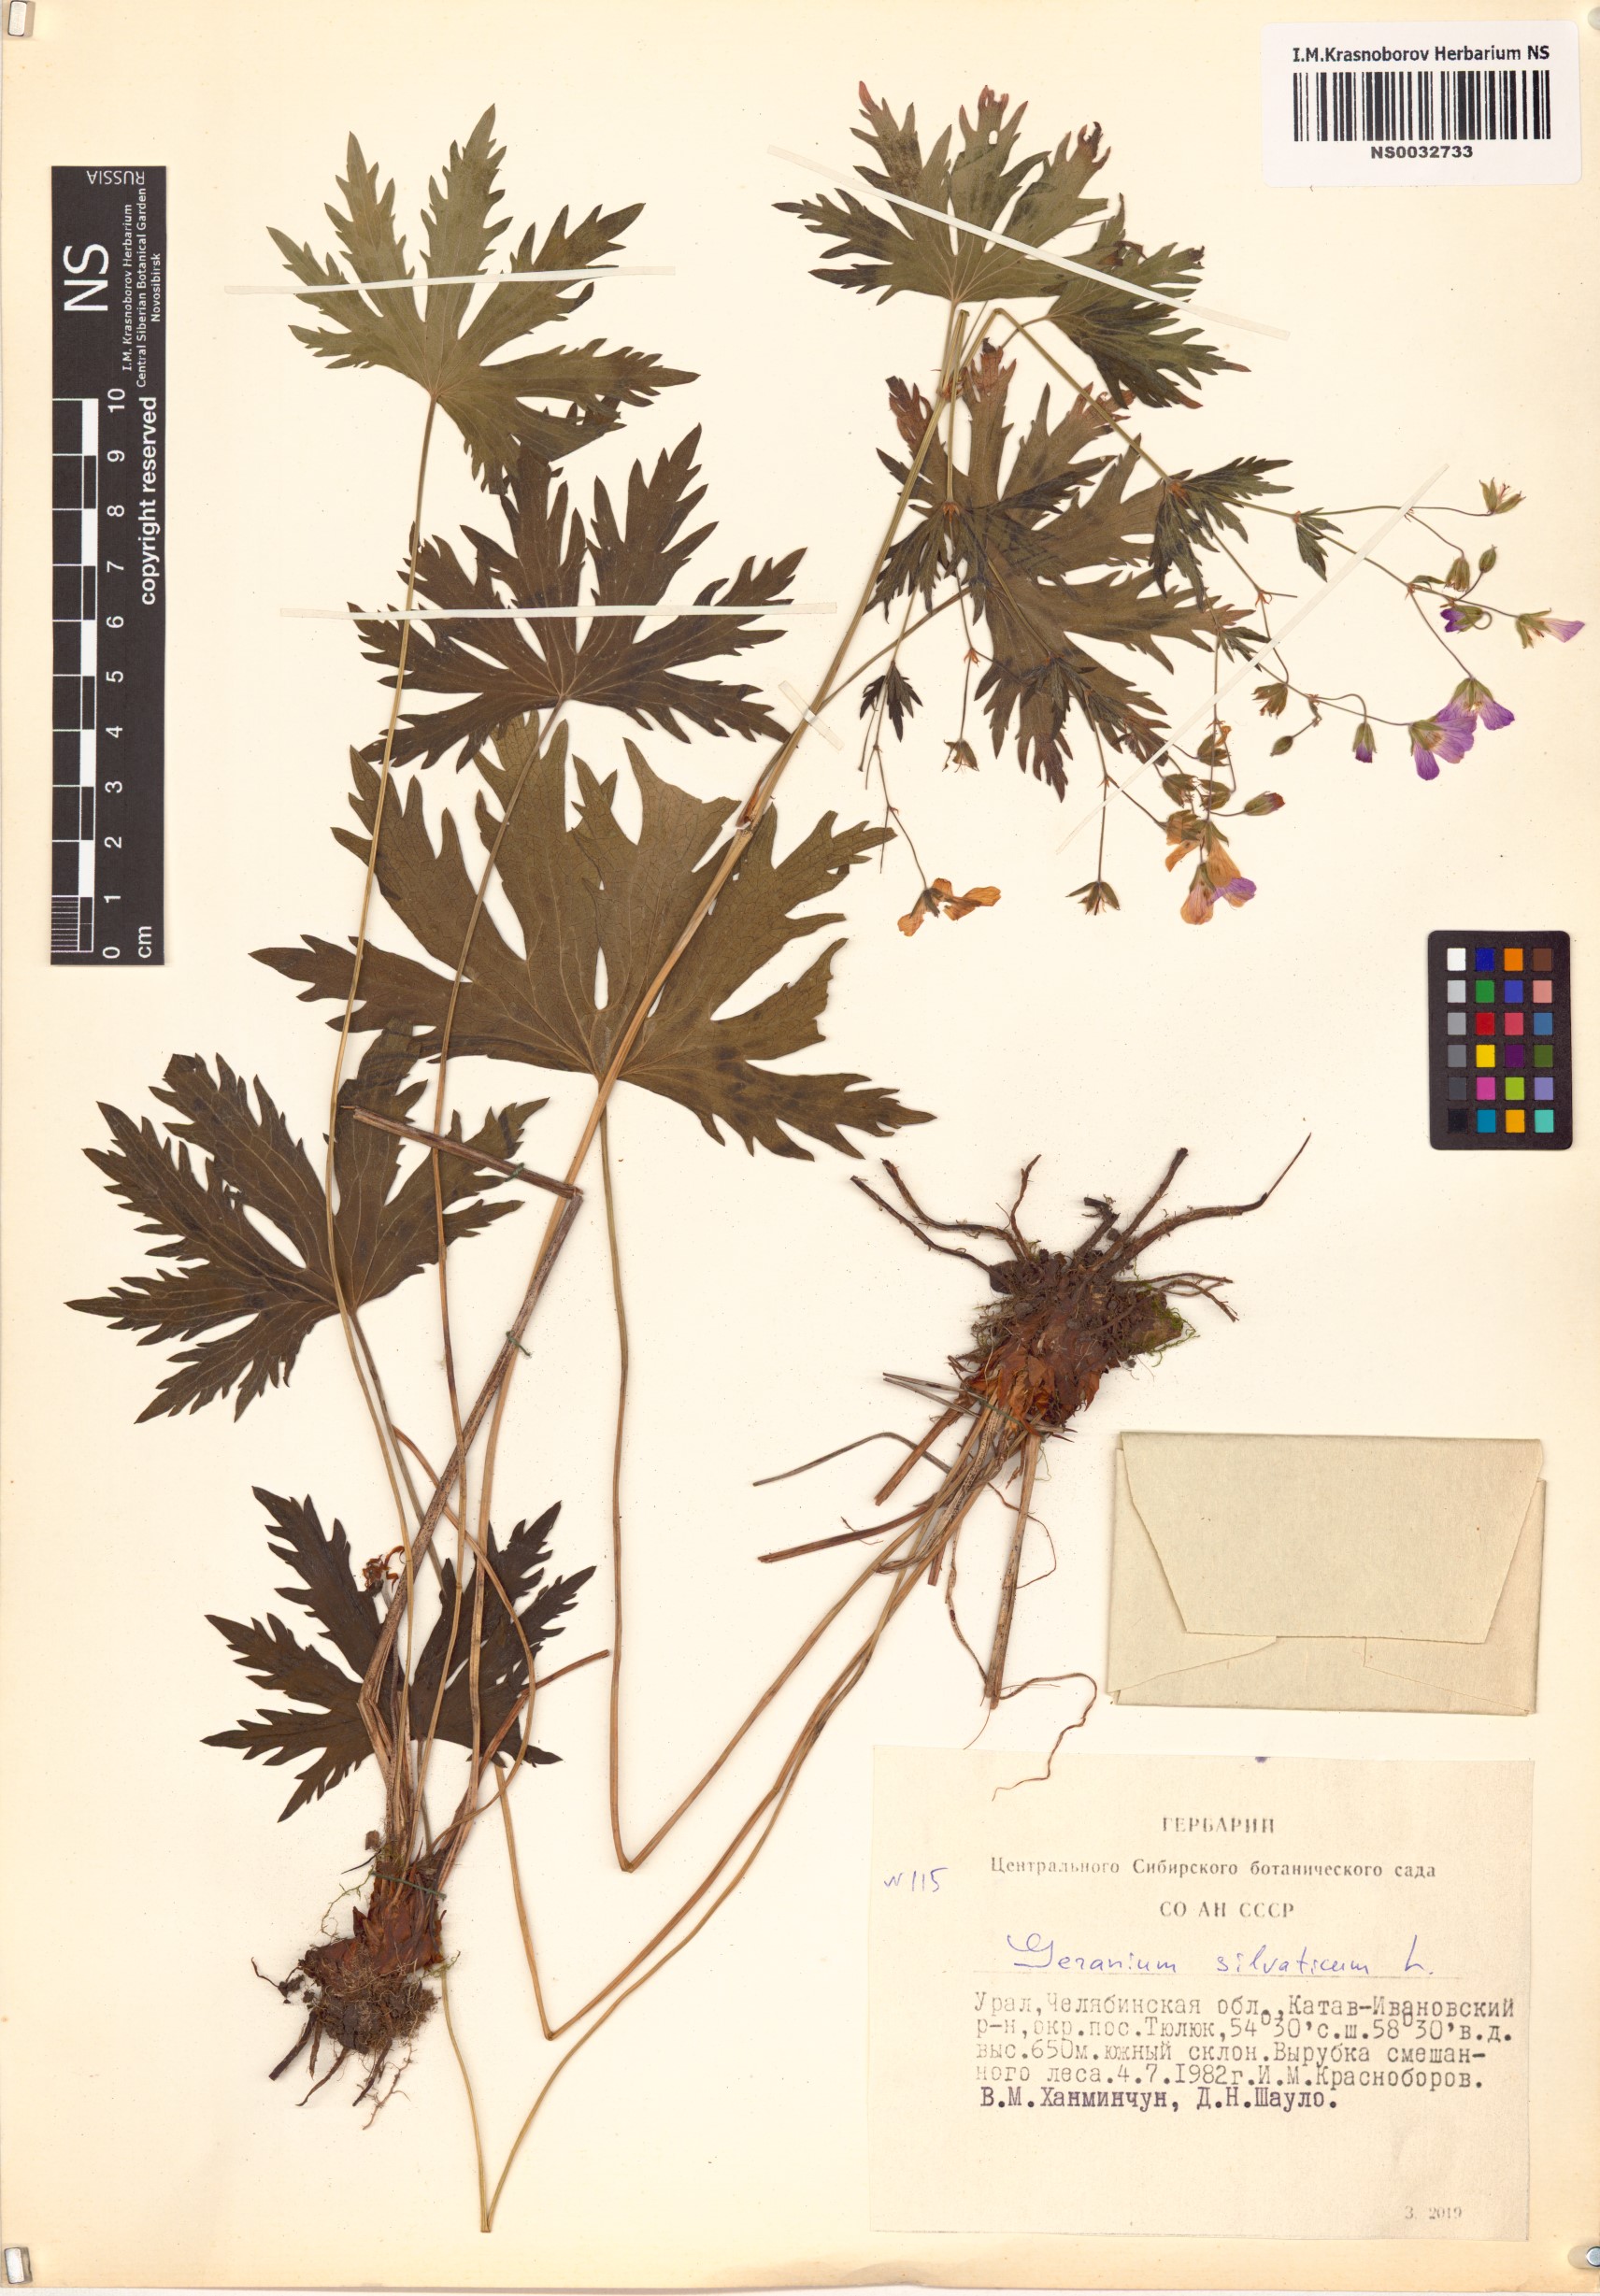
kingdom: Plantae
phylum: Tracheophyta
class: Magnoliopsida
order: Geraniales
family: Geraniaceae
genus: Geranium
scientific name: Geranium sylvaticum
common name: Wood crane's-bill
